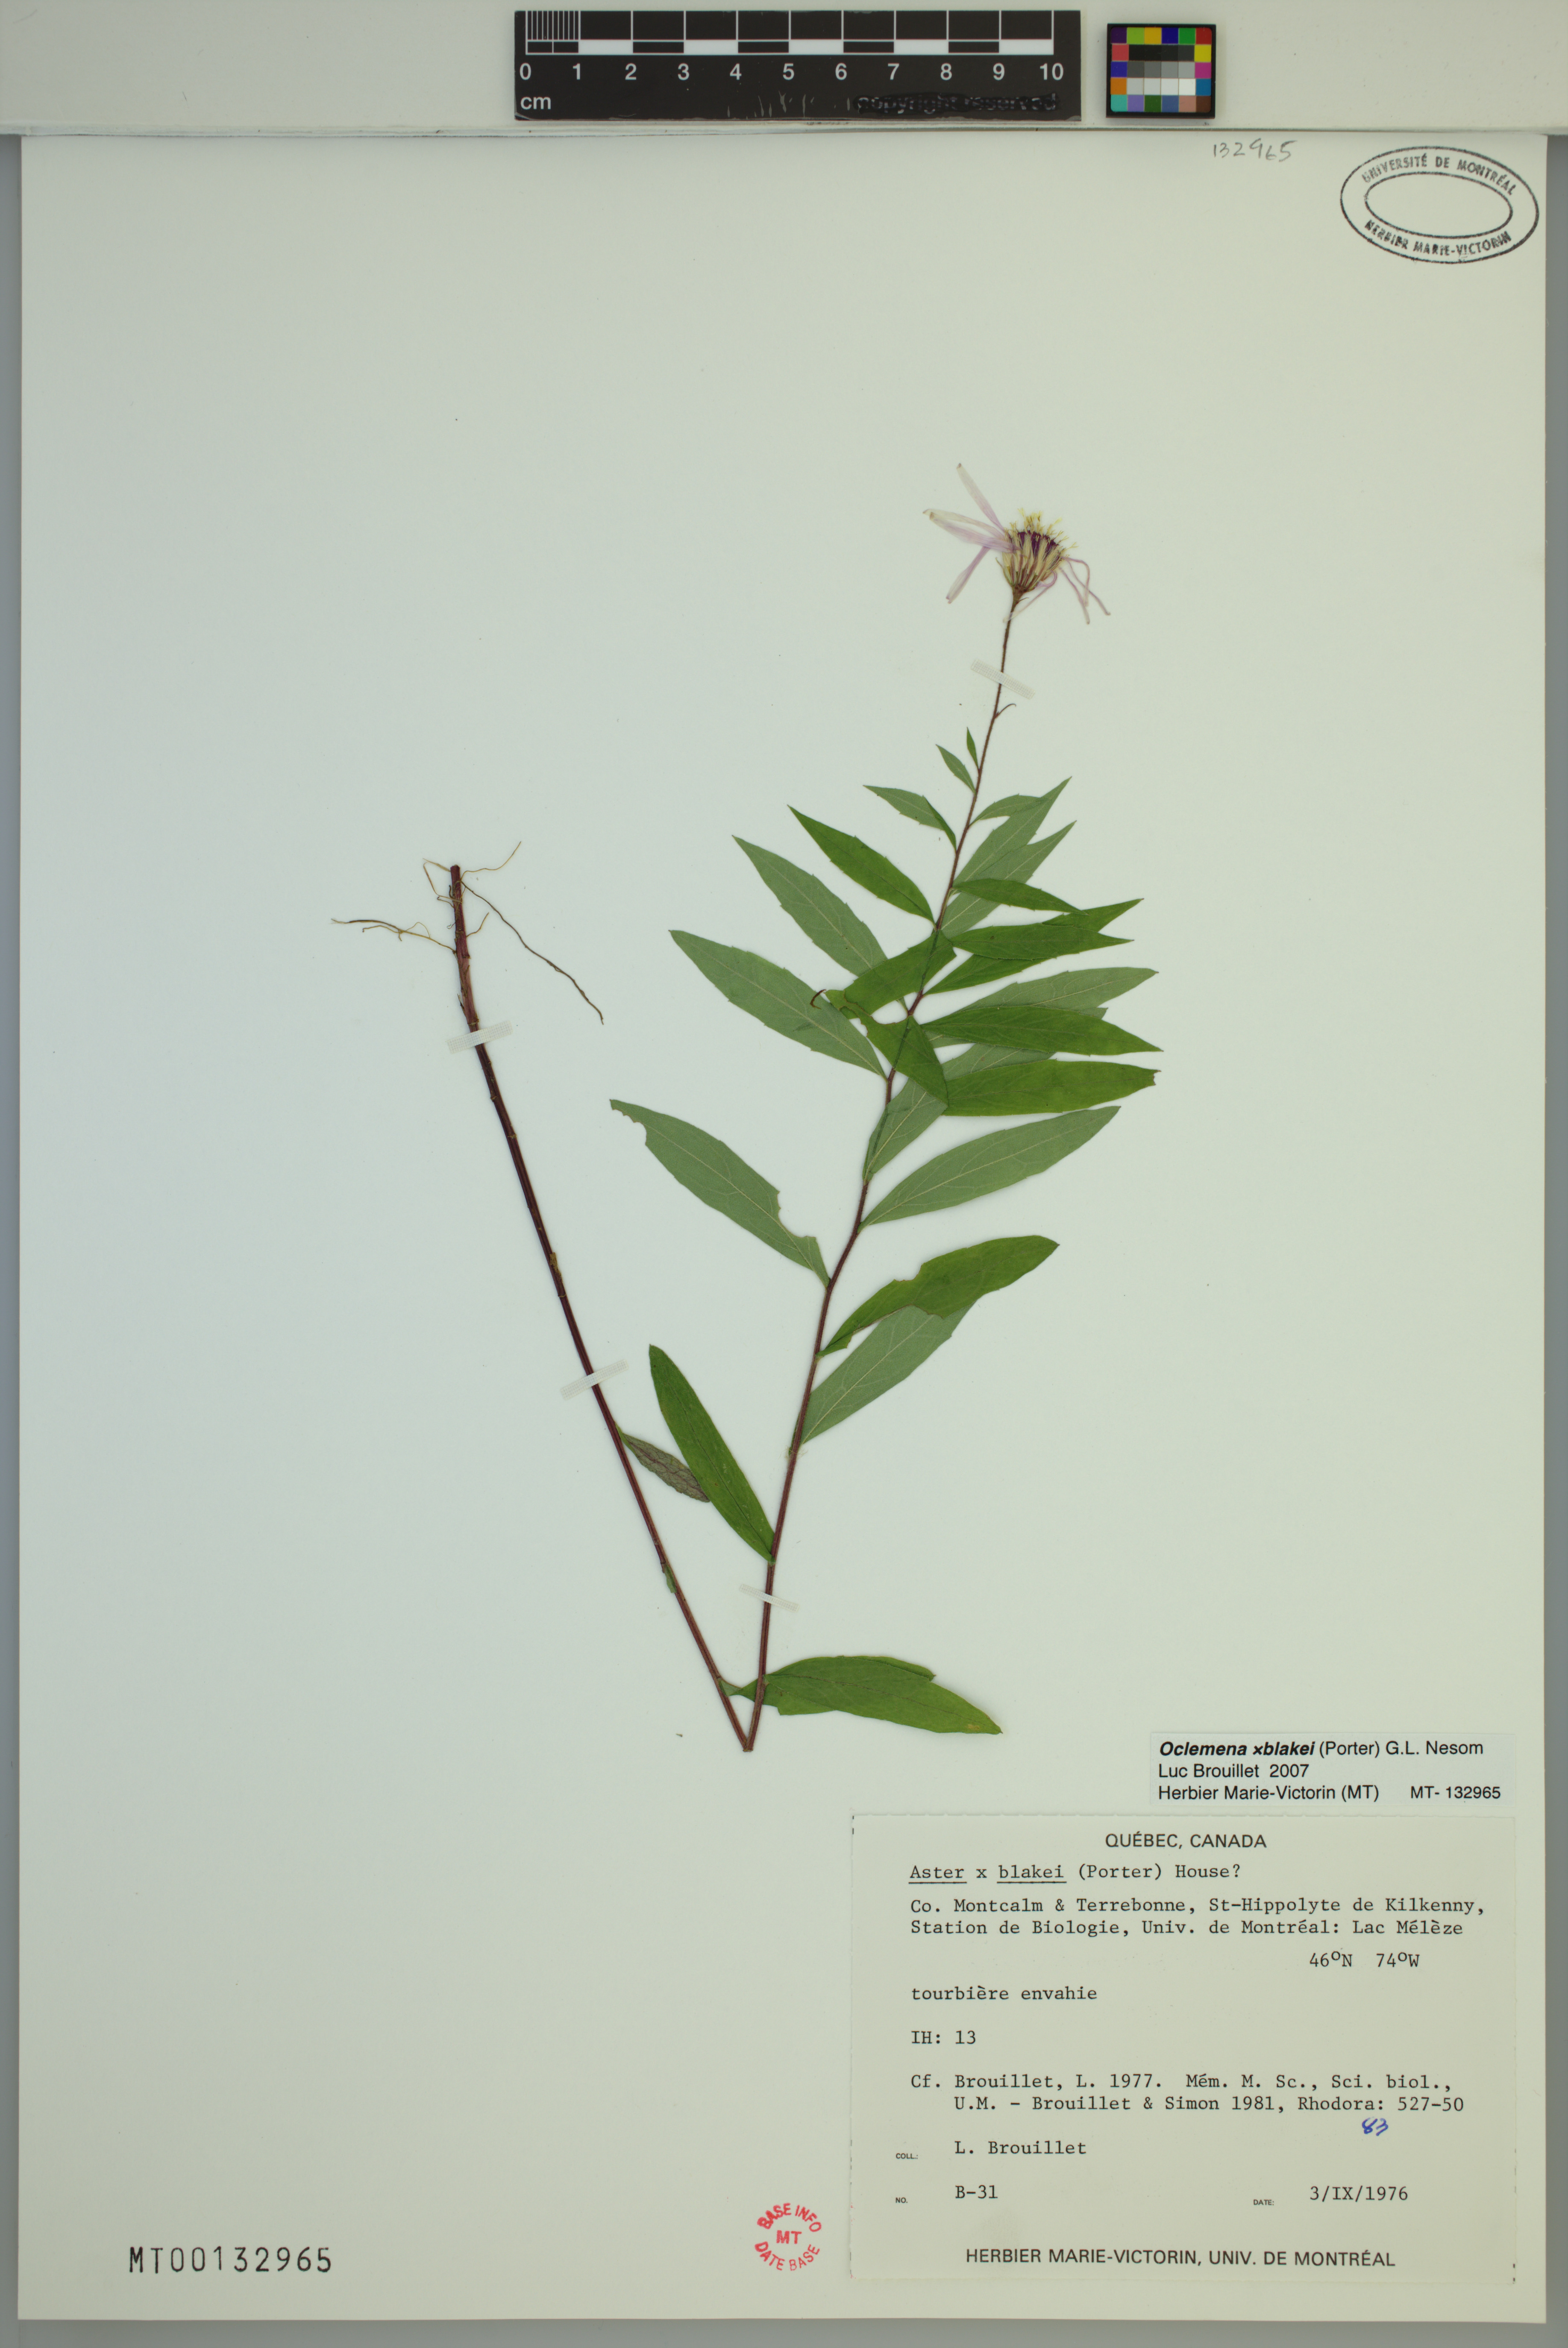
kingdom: Plantae
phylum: Tracheophyta
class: Magnoliopsida
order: Asterales
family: Asteraceae
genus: Oclemena
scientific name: Oclemena blakei
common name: Blake's aster
